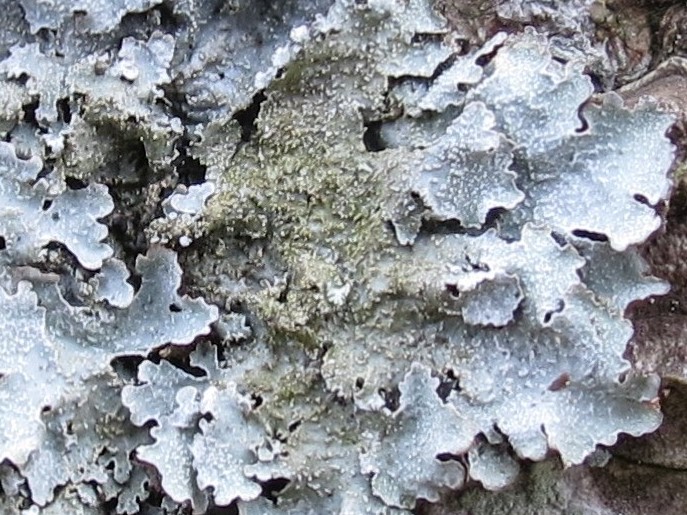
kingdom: Fungi
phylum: Ascomycota
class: Lecanoromycetes
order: Lecanorales
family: Parmeliaceae
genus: Parmelia
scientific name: Parmelia
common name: farve-skållav
